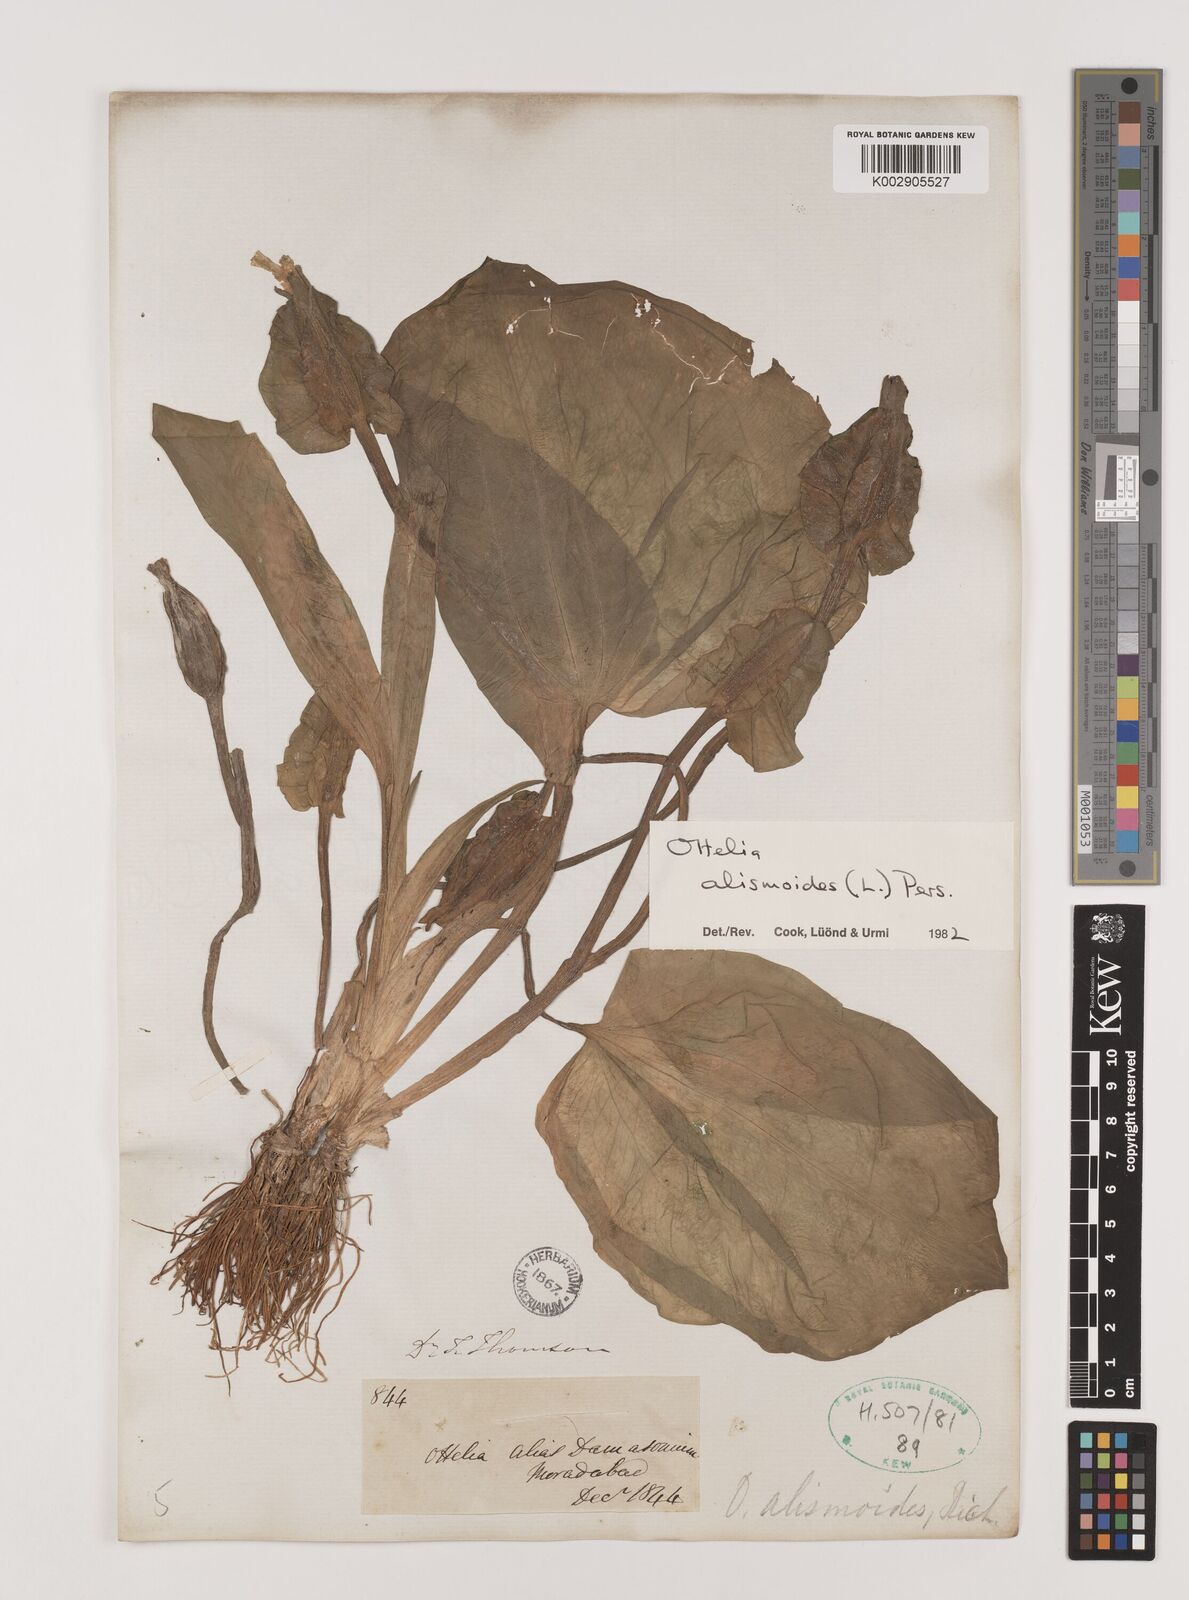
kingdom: Plantae
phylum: Tracheophyta
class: Liliopsida
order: Alismatales
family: Hydrocharitaceae
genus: Ottelia
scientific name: Ottelia alismoides
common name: Duck-lettuce
